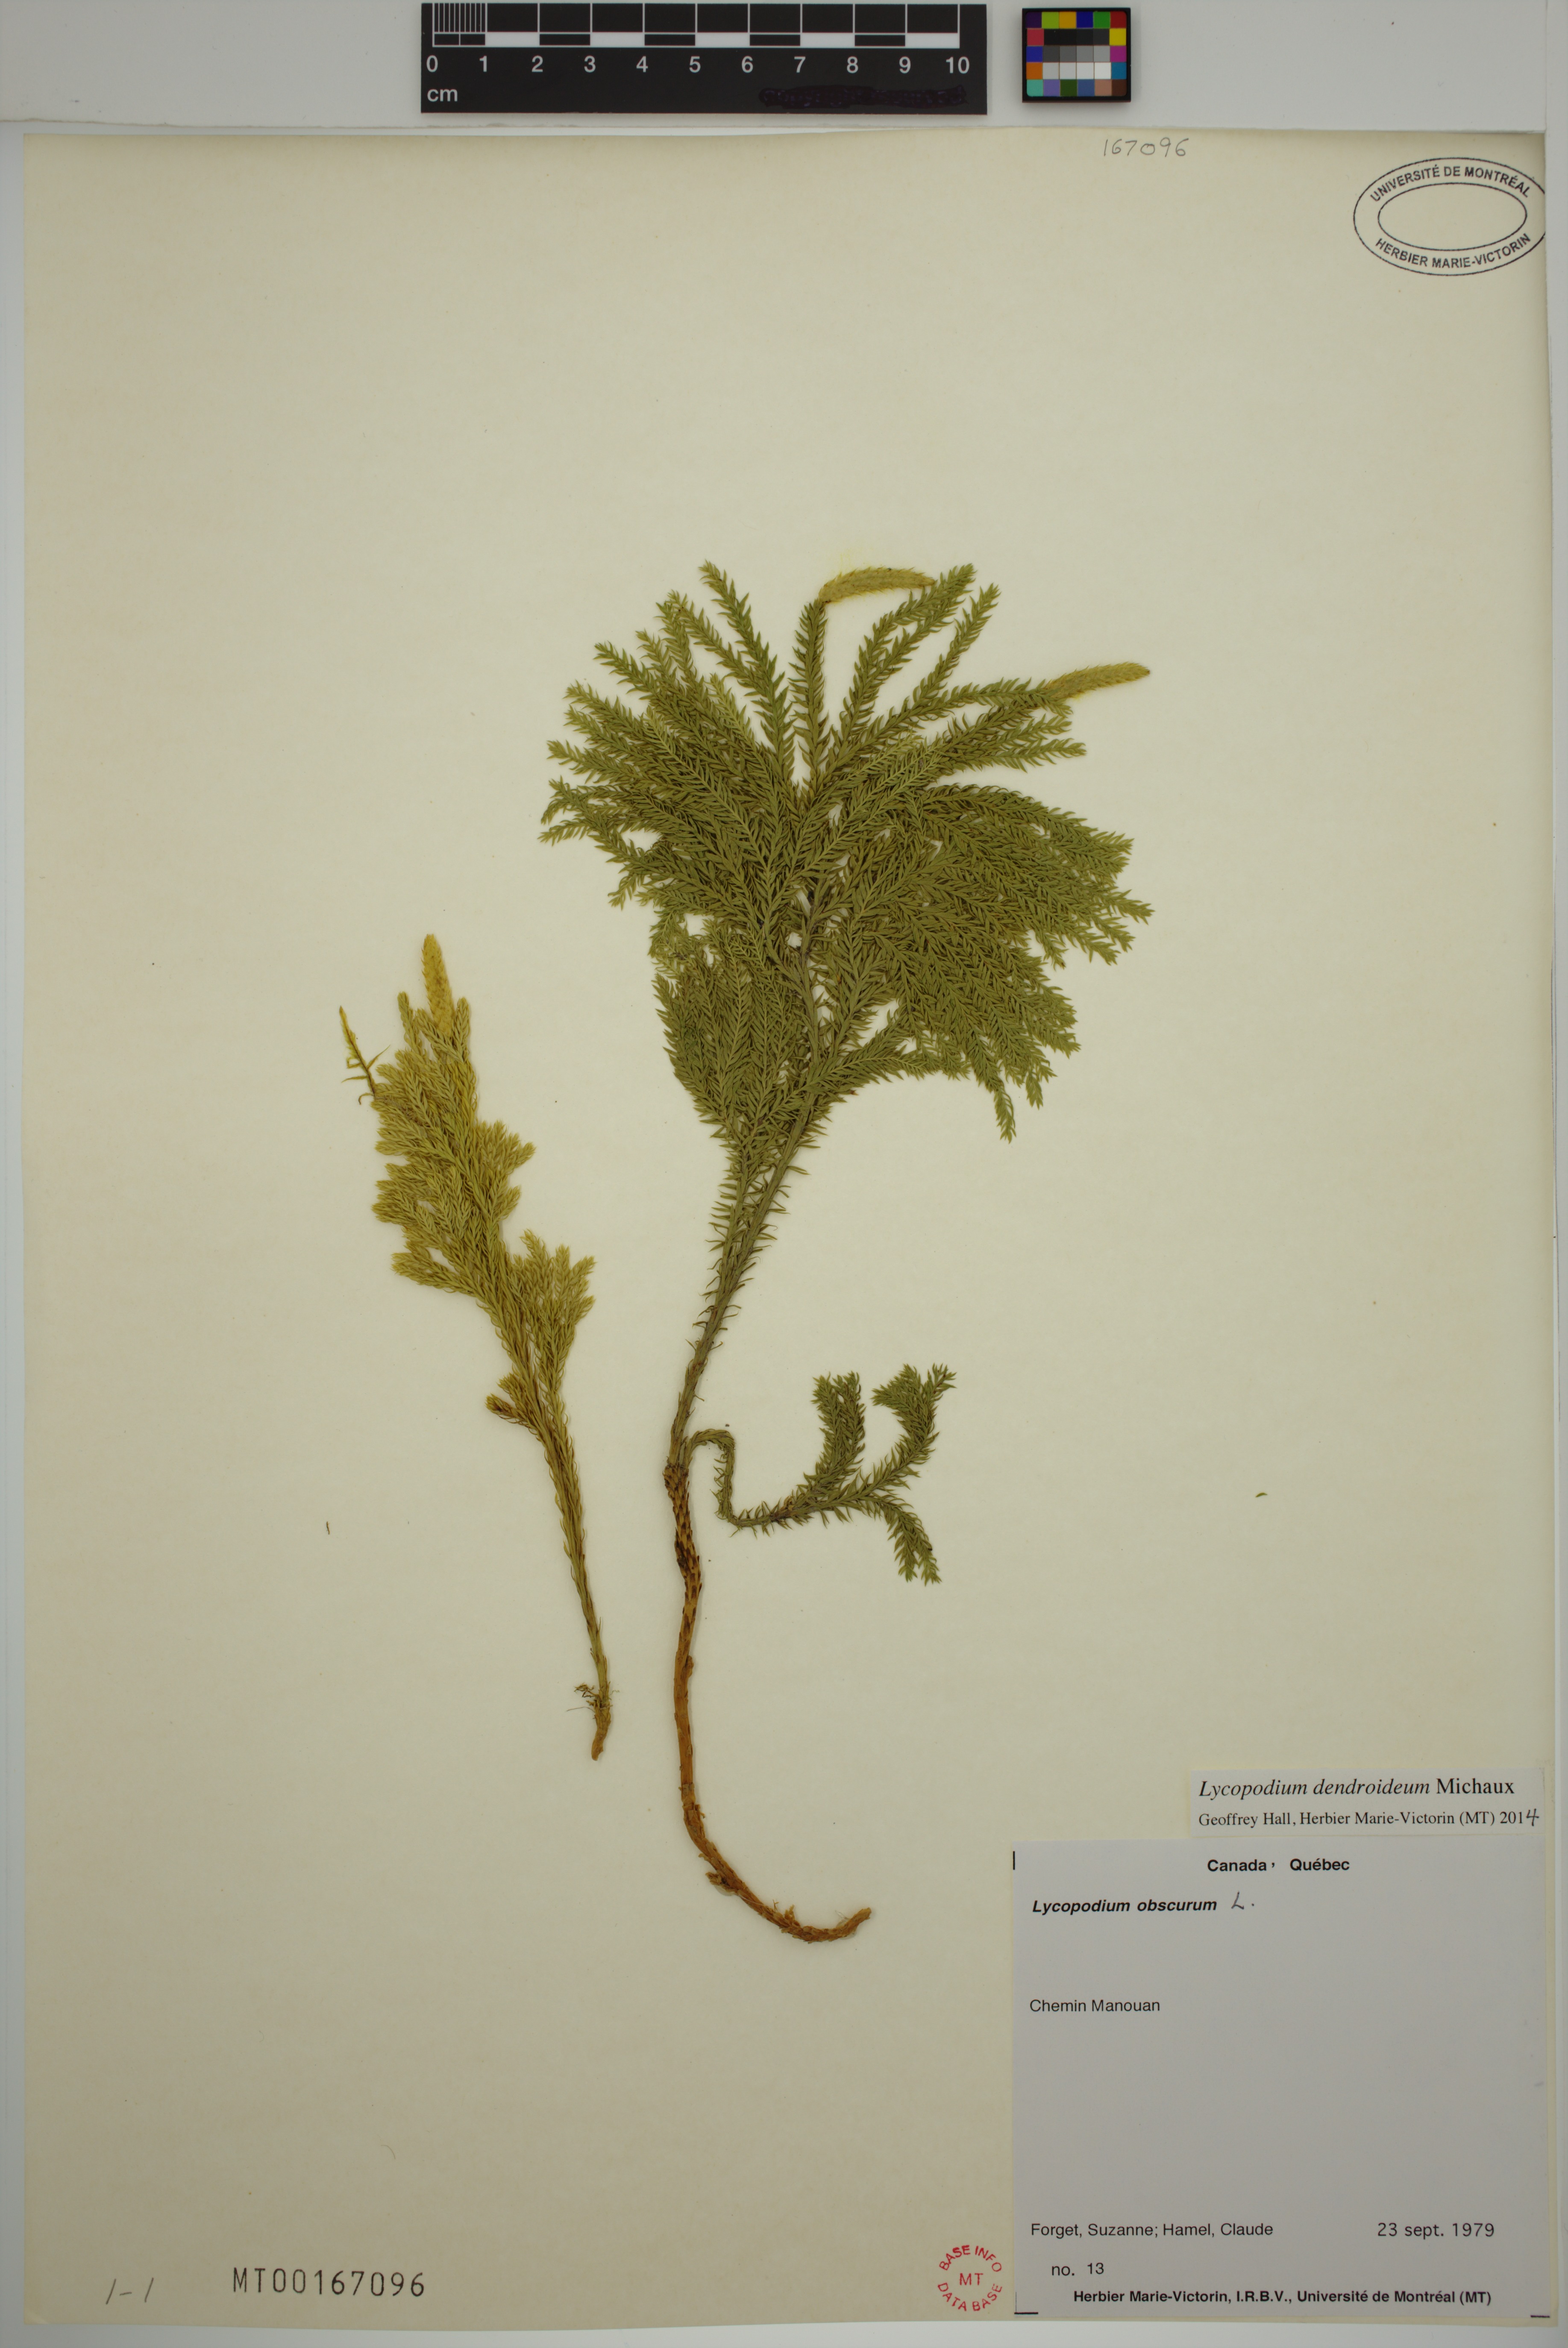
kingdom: Plantae
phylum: Tracheophyta
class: Lycopodiopsida
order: Lycopodiales
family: Lycopodiaceae
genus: Dendrolycopodium
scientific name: Dendrolycopodium dendroideum
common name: Northern tree-clubmoss
